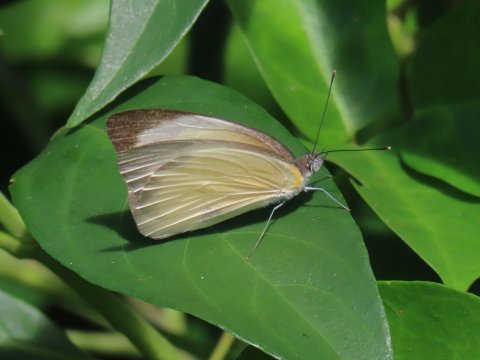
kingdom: Animalia
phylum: Arthropoda
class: Insecta
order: Lepidoptera
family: Pieridae
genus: Ascia
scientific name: Ascia monuste
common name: Great Southern White
